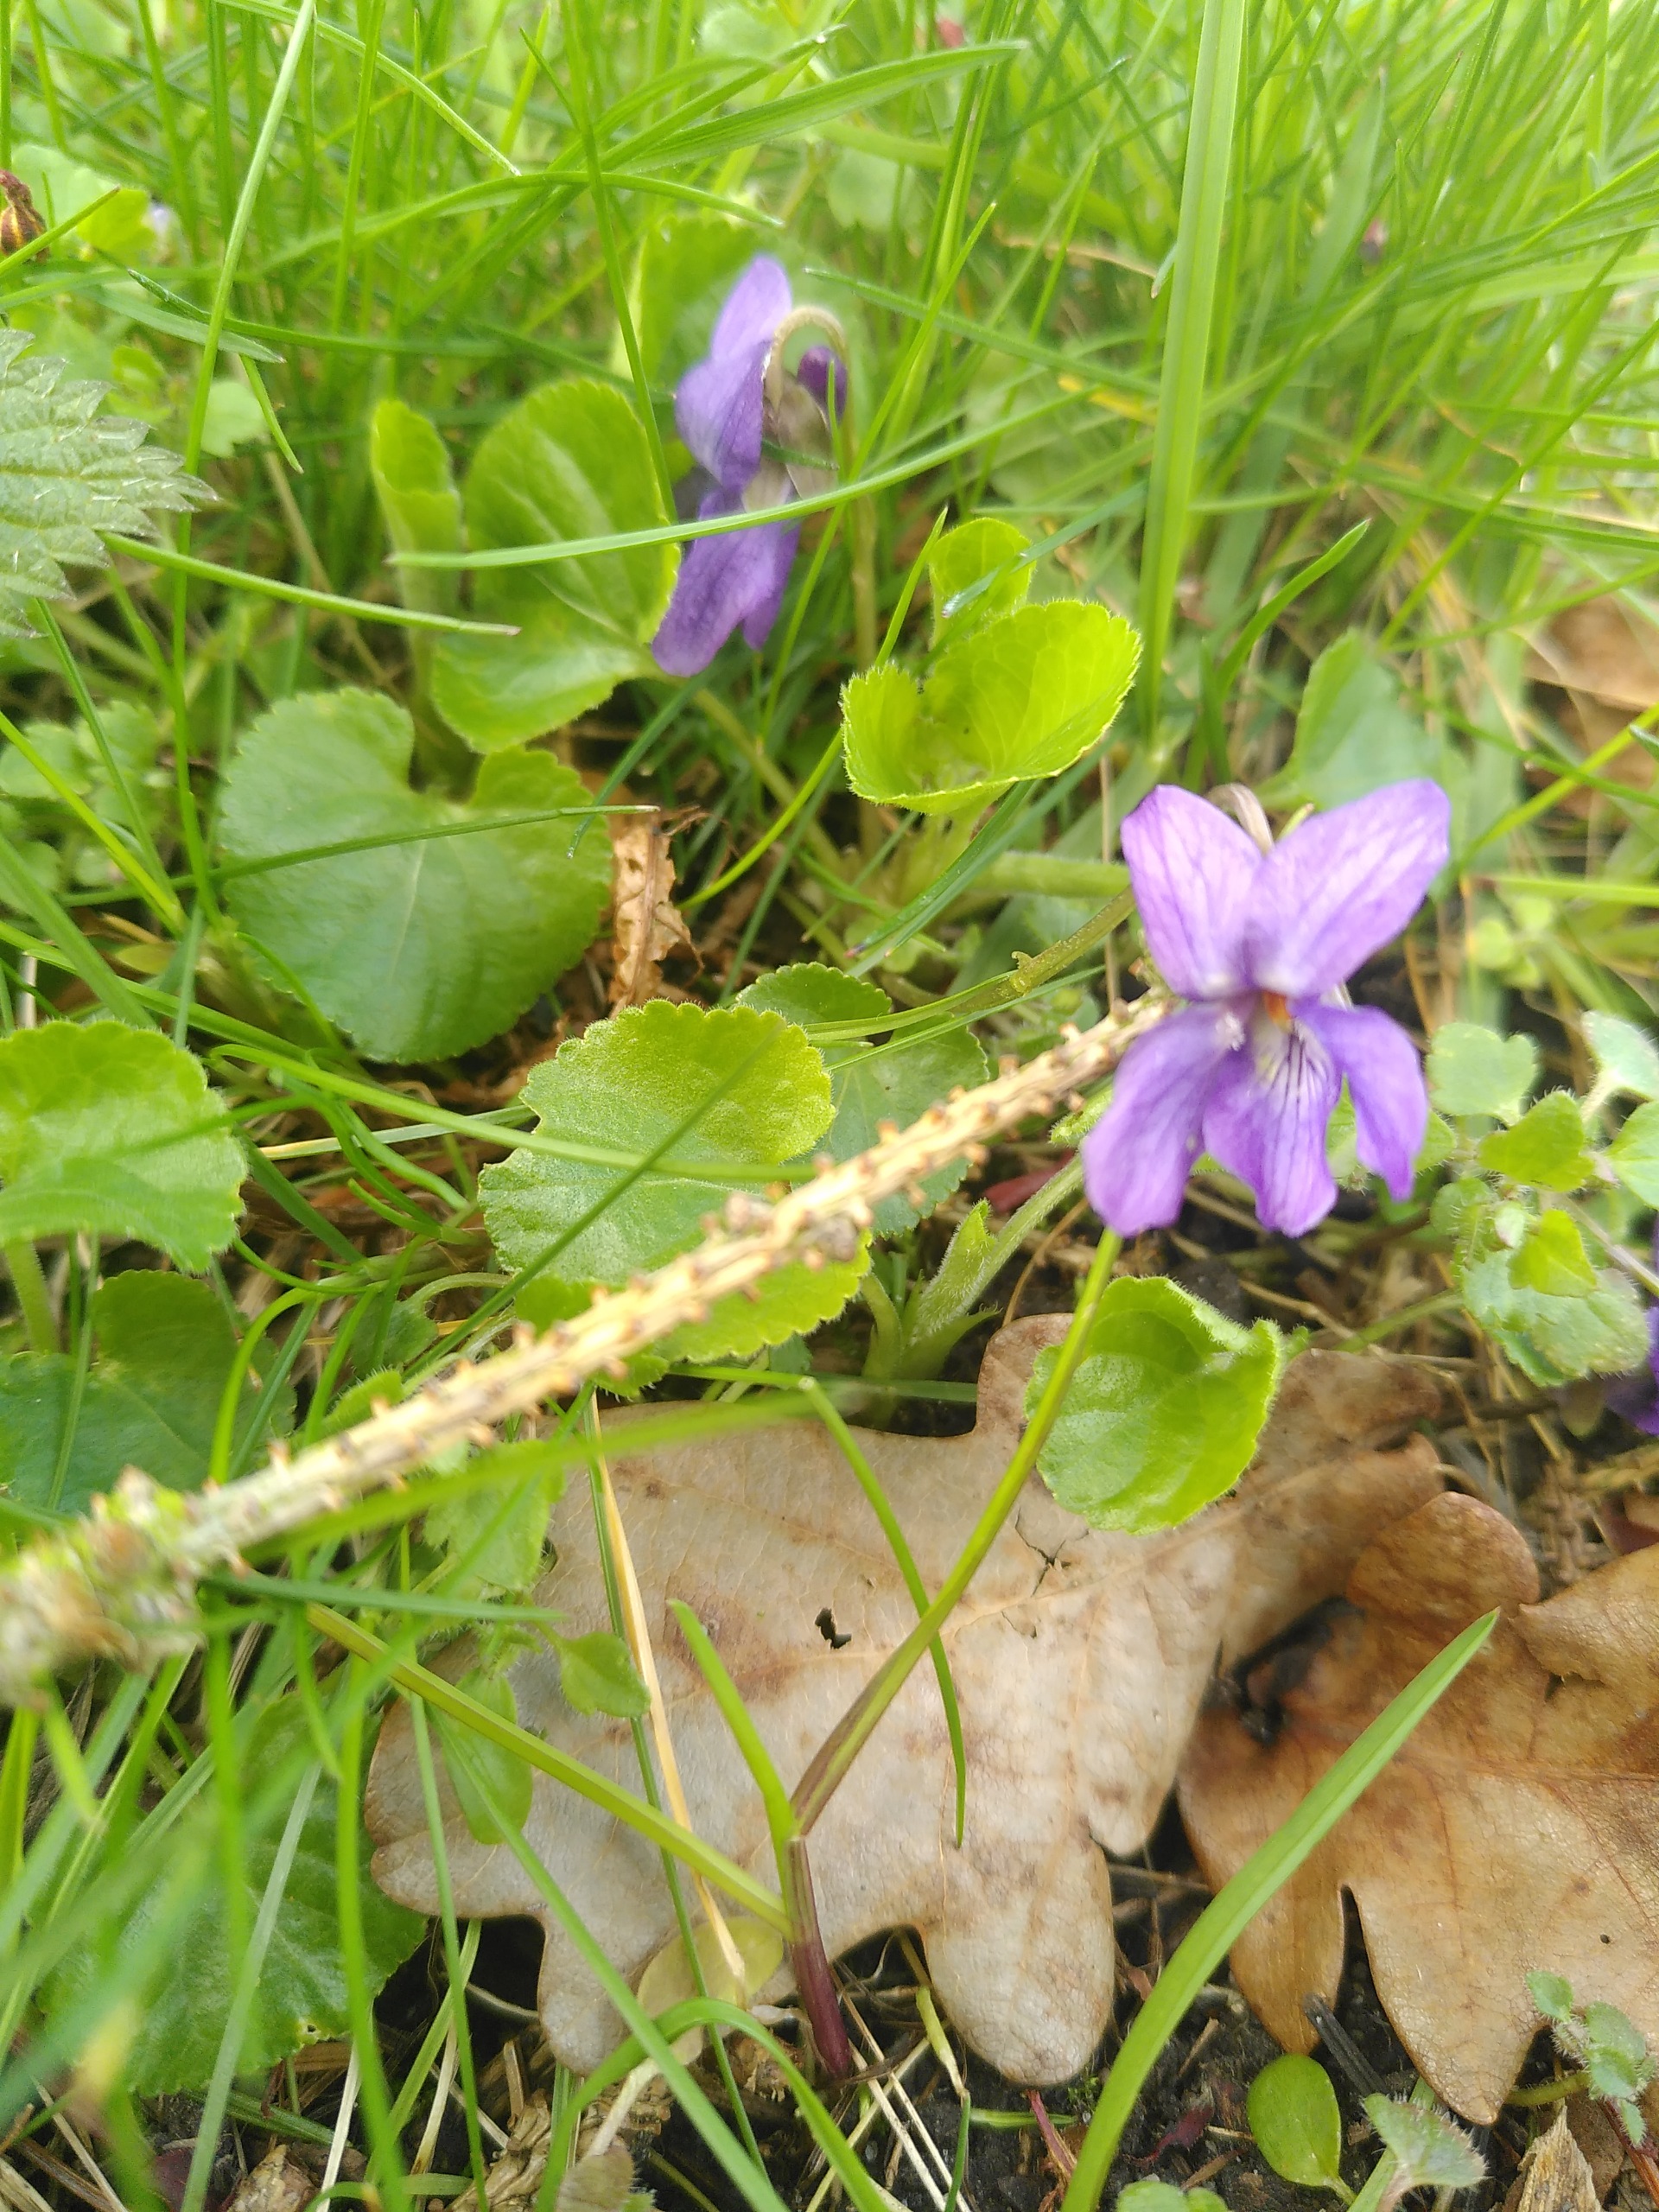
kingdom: Plantae
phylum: Tracheophyta
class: Magnoliopsida
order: Malpighiales
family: Violaceae
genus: Viola
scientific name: Viola odorata
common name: Marts-viol
